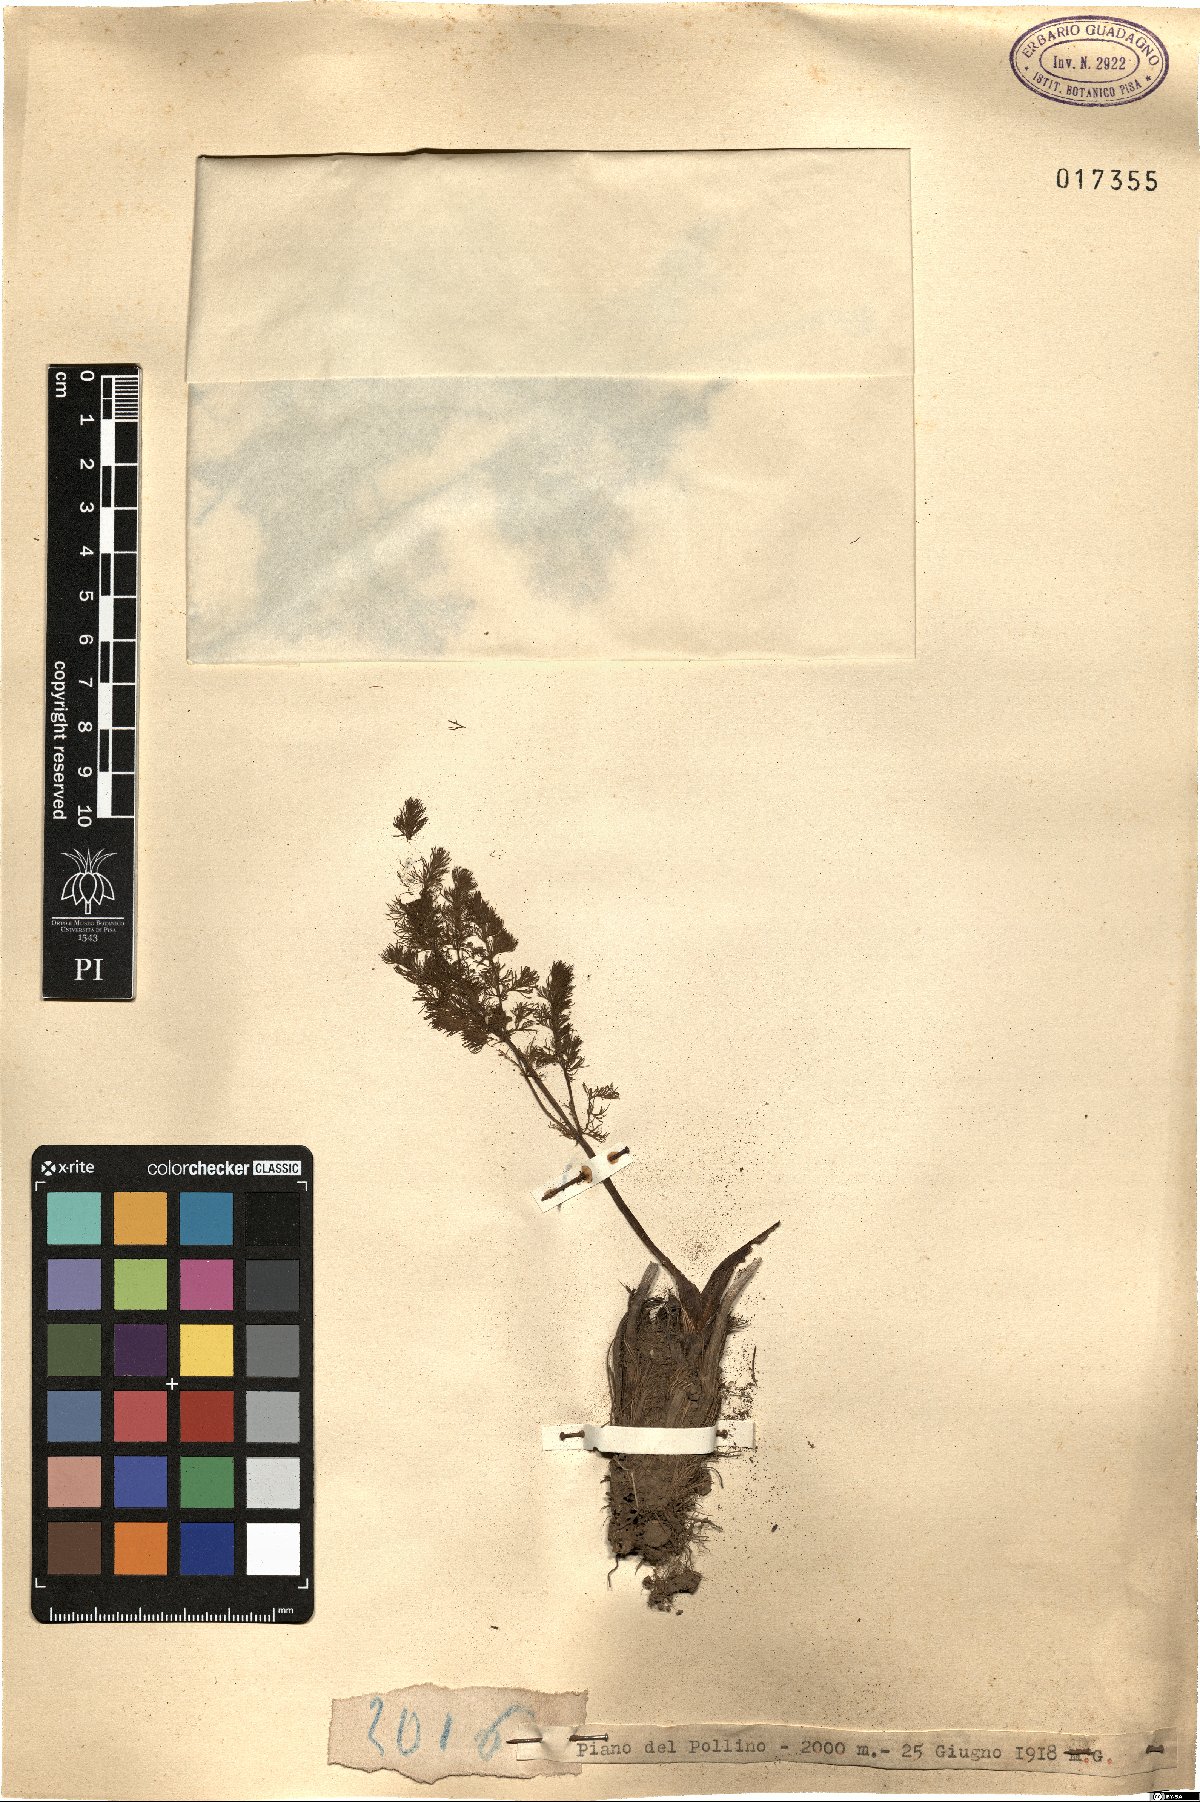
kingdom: Plantae
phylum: Tracheophyta
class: Magnoliopsida
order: Apiales
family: Apiaceae
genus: Meum
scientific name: Meum
